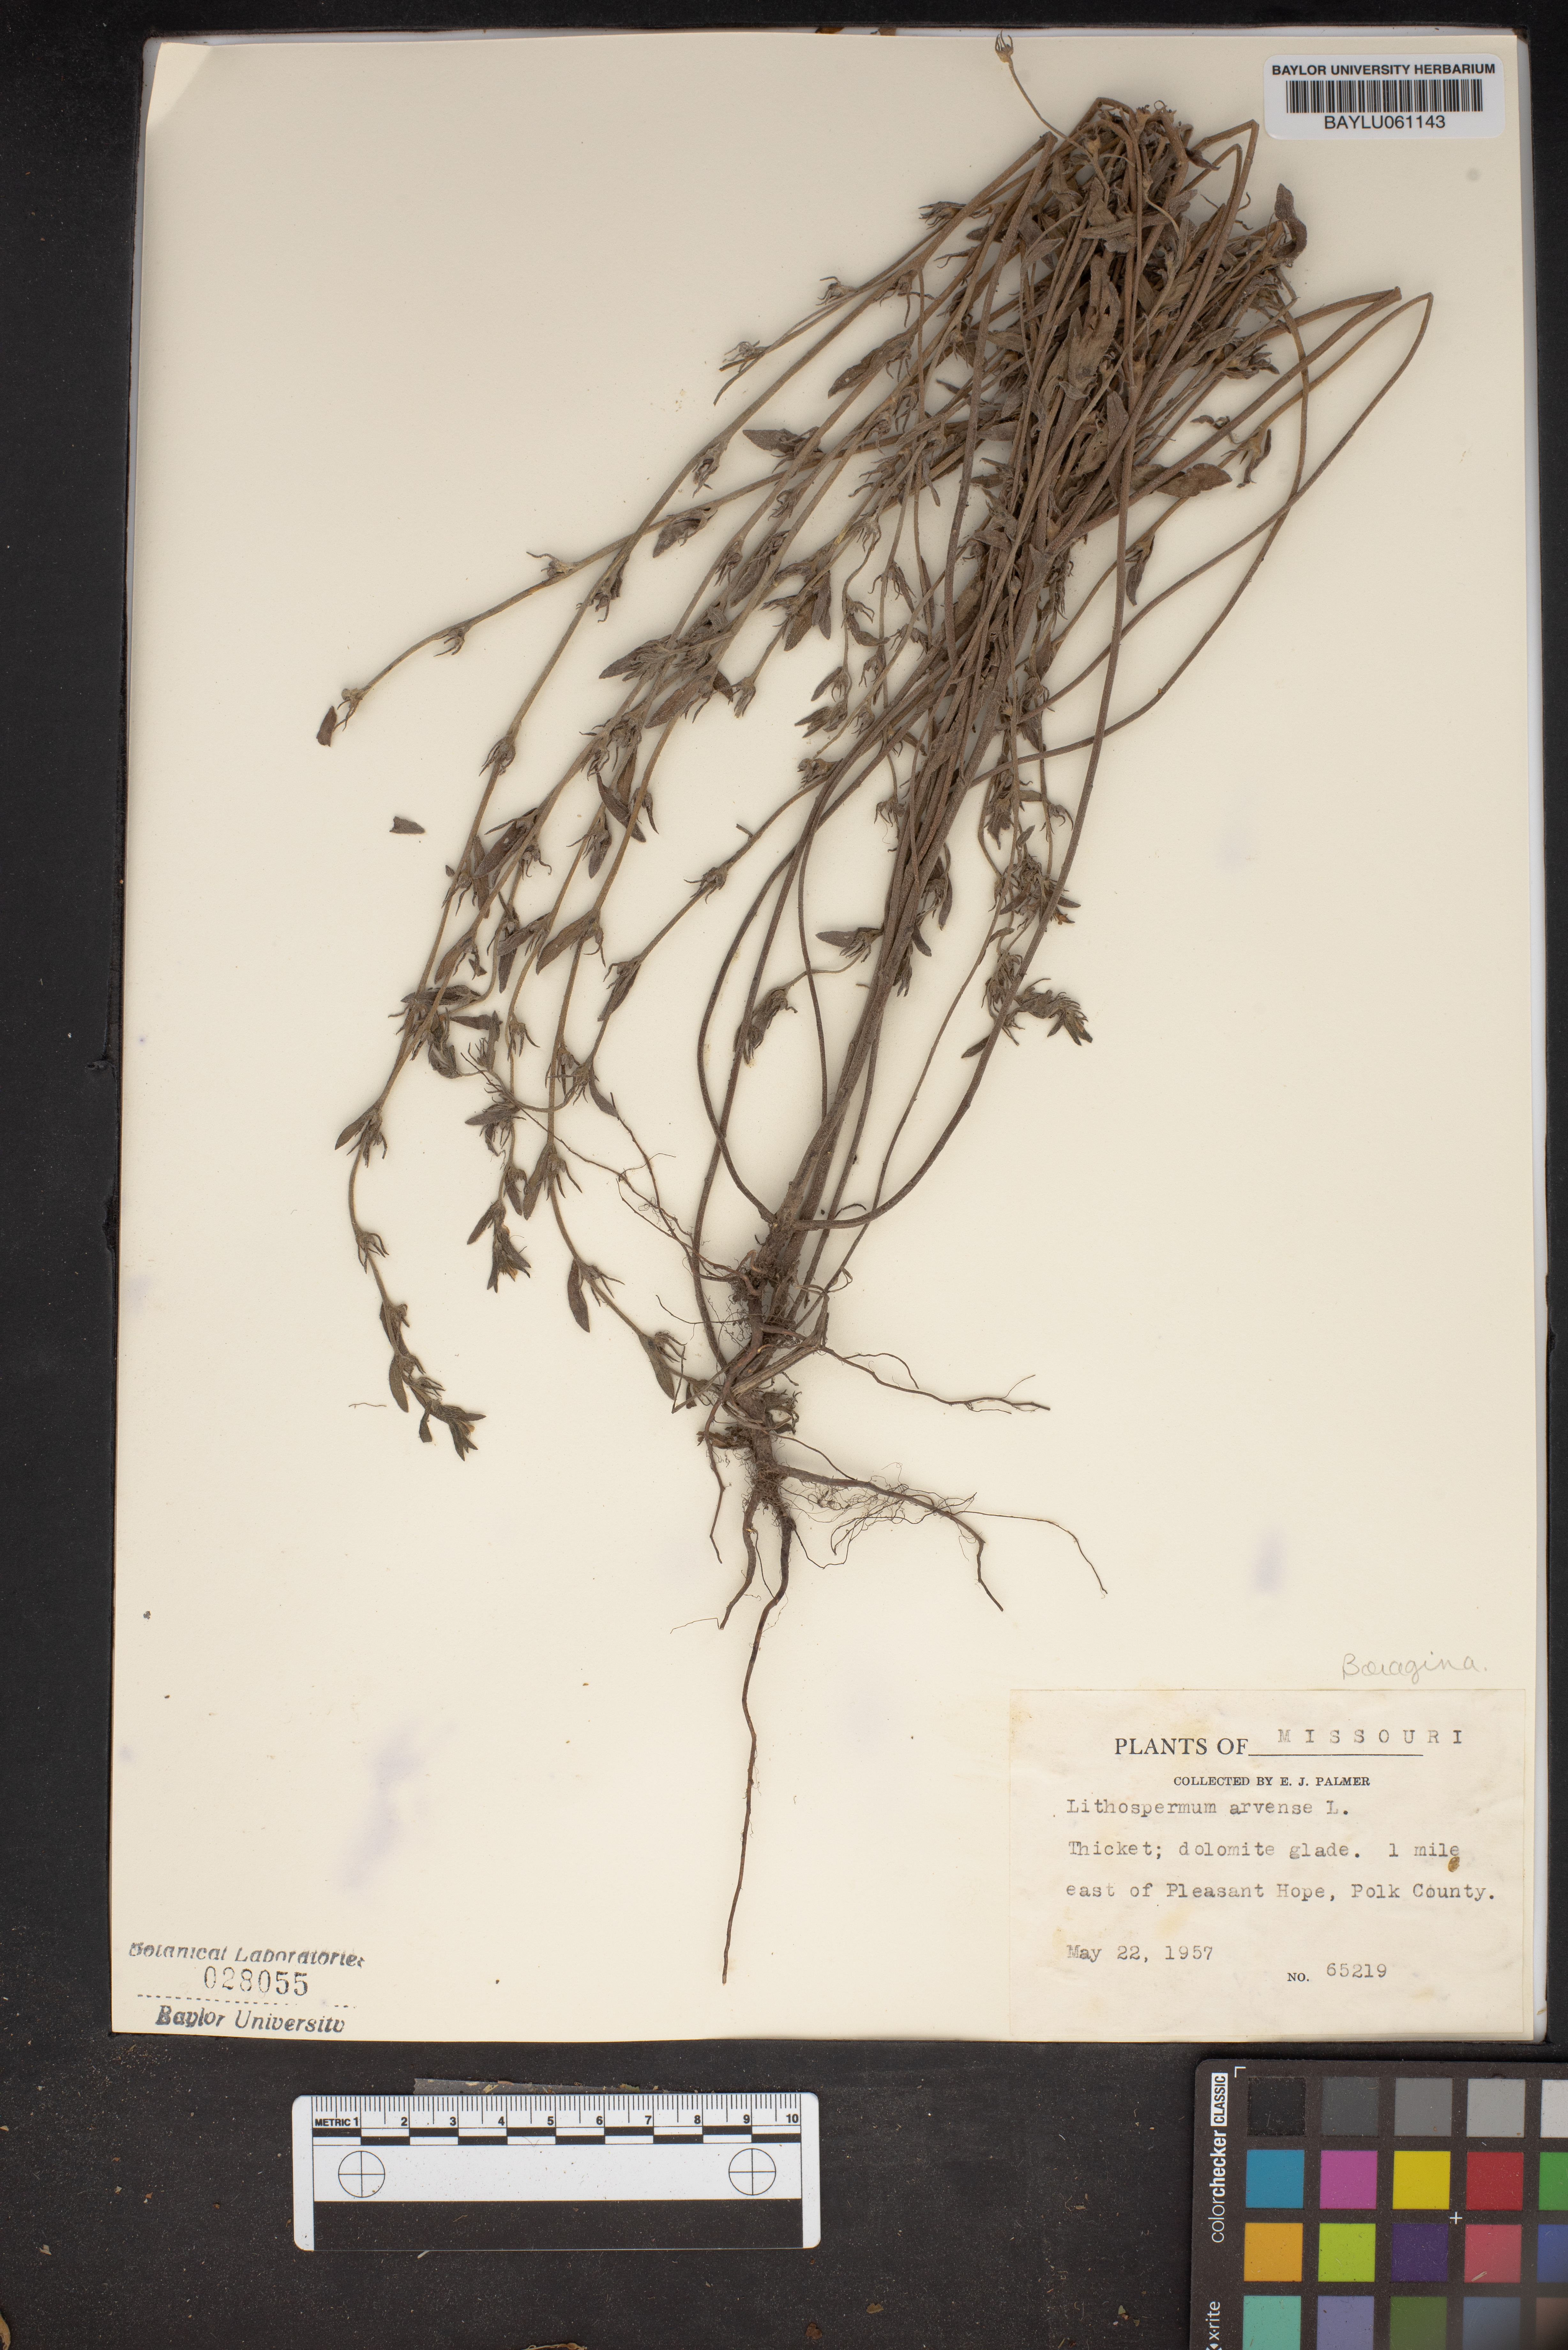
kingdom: Plantae
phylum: Tracheophyta
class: Magnoliopsida
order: Boraginales
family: Boraginaceae
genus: Lithospermum
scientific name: Lithospermum erythrorhizon
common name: Purple gromwell
